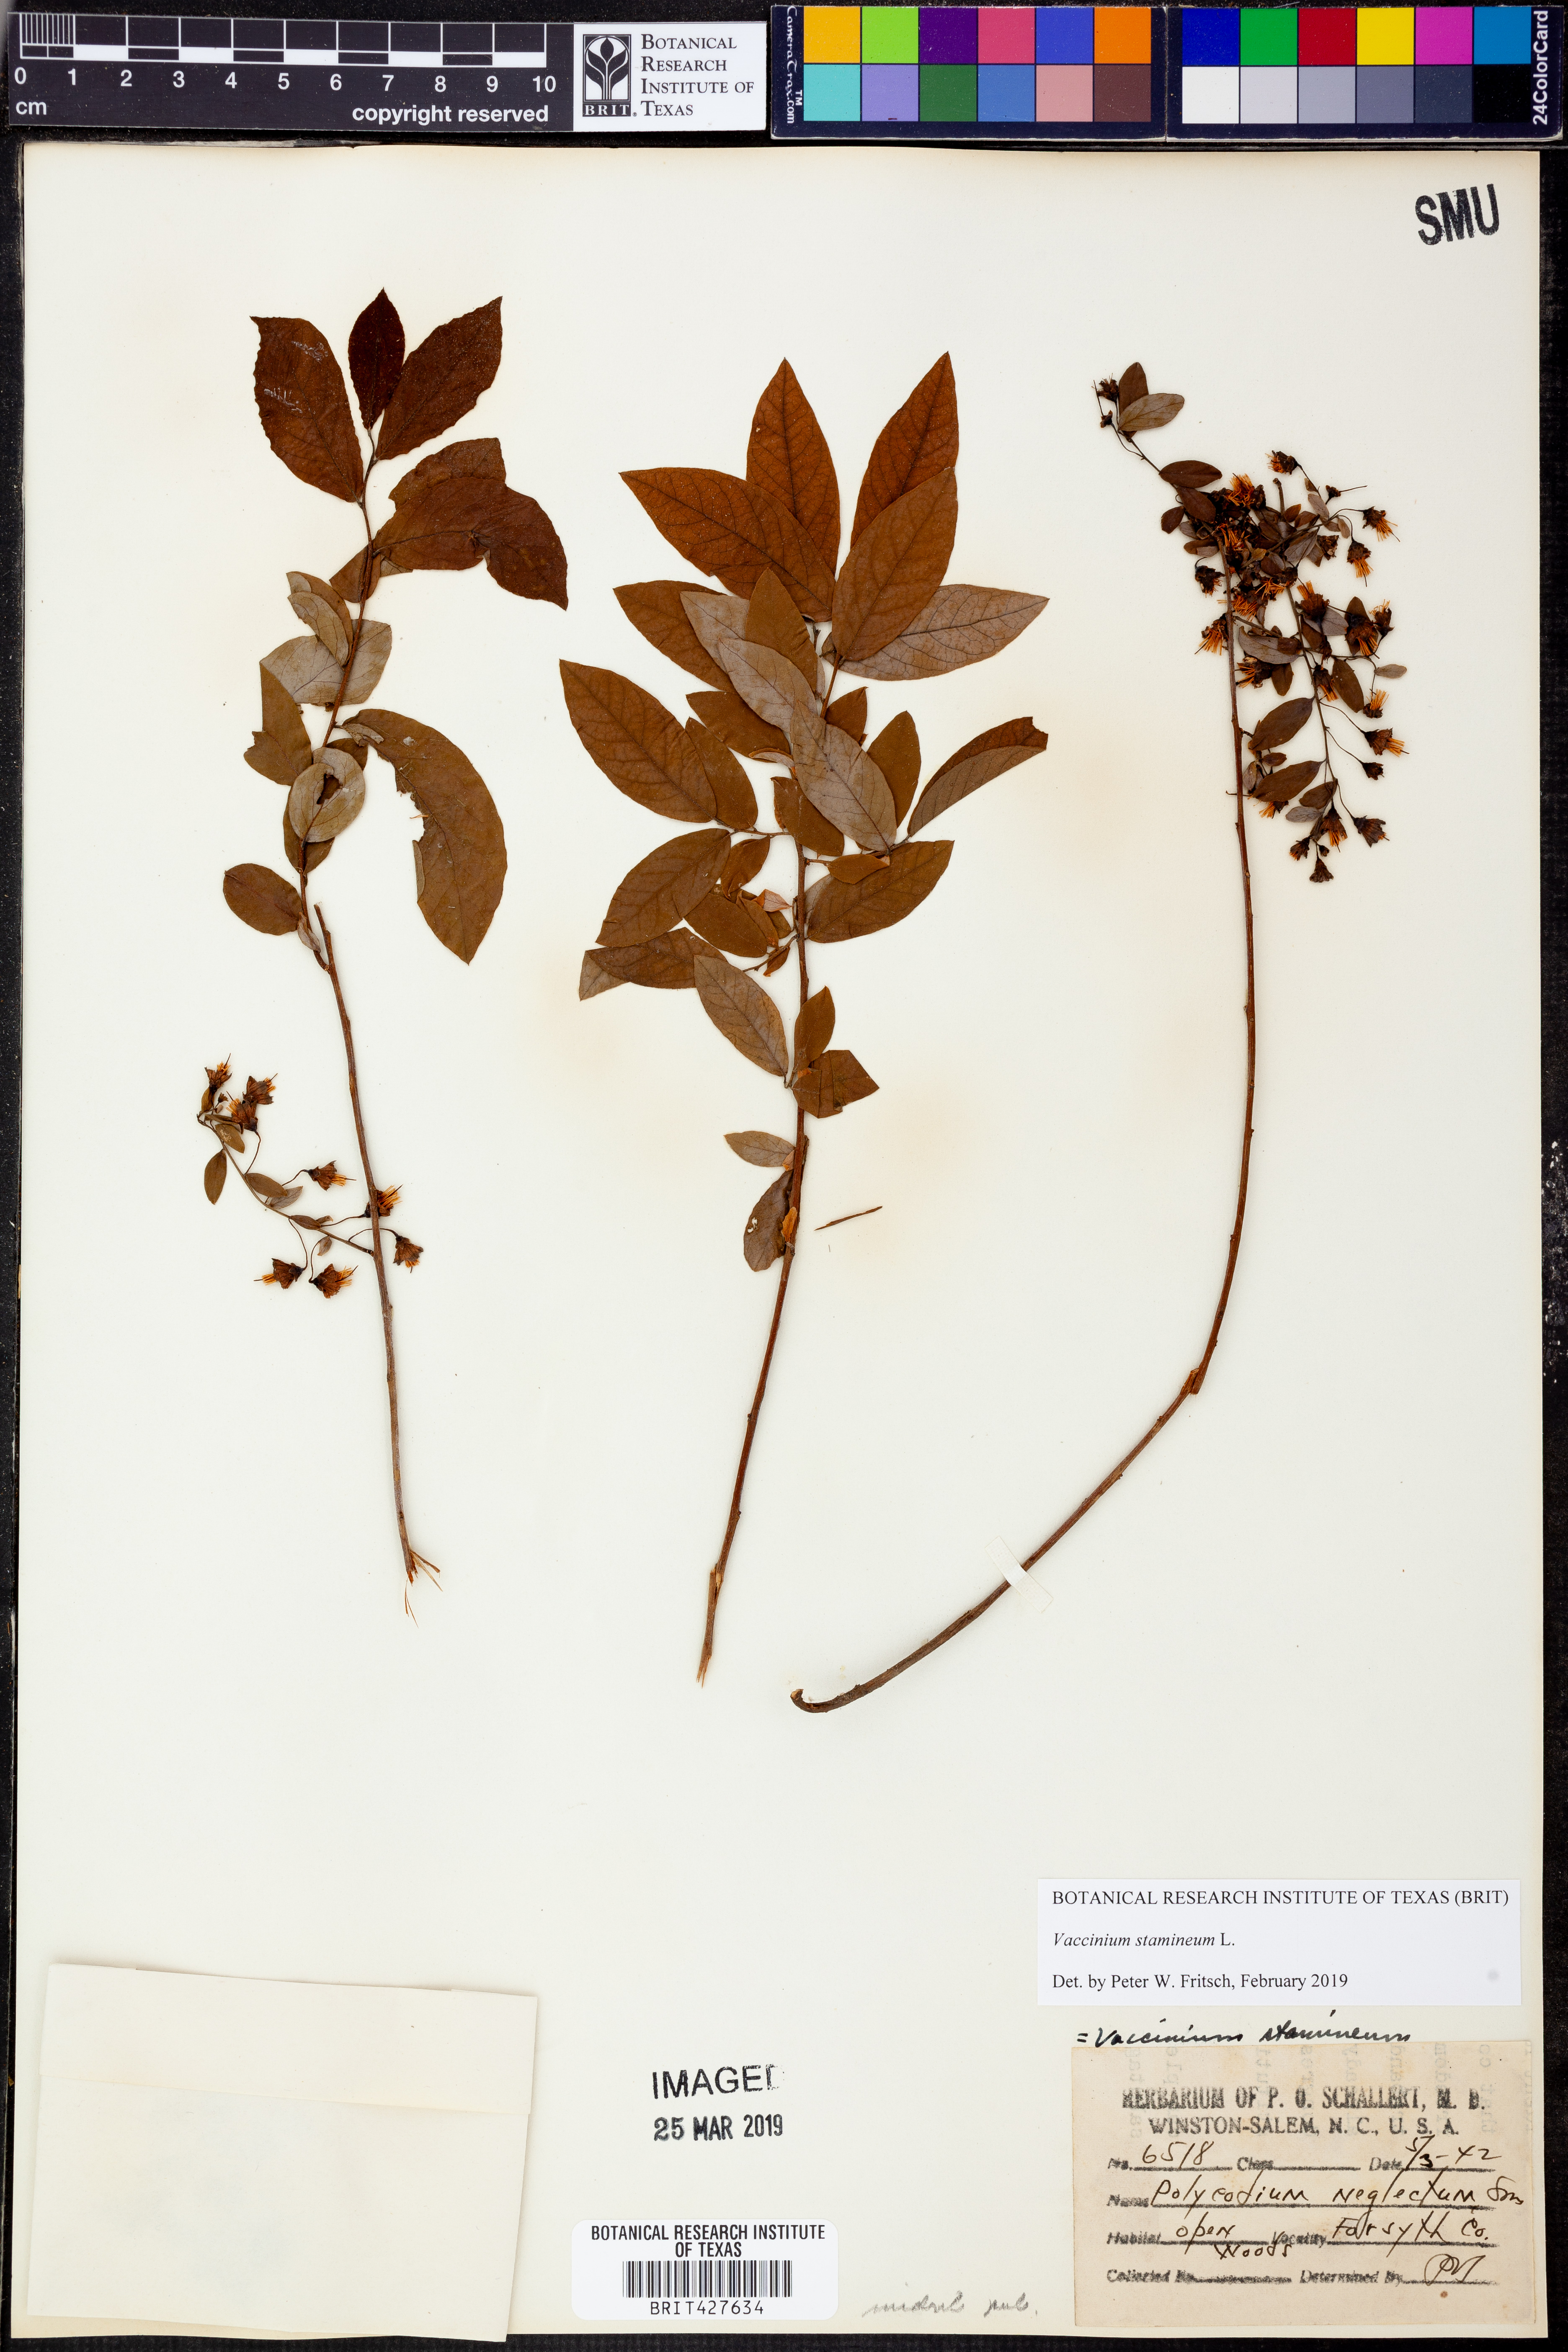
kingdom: Plantae
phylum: Tracheophyta
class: Magnoliopsida
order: Ericales
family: Ericaceae
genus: Vaccinium
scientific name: Vaccinium stamineum
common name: Deerberry
